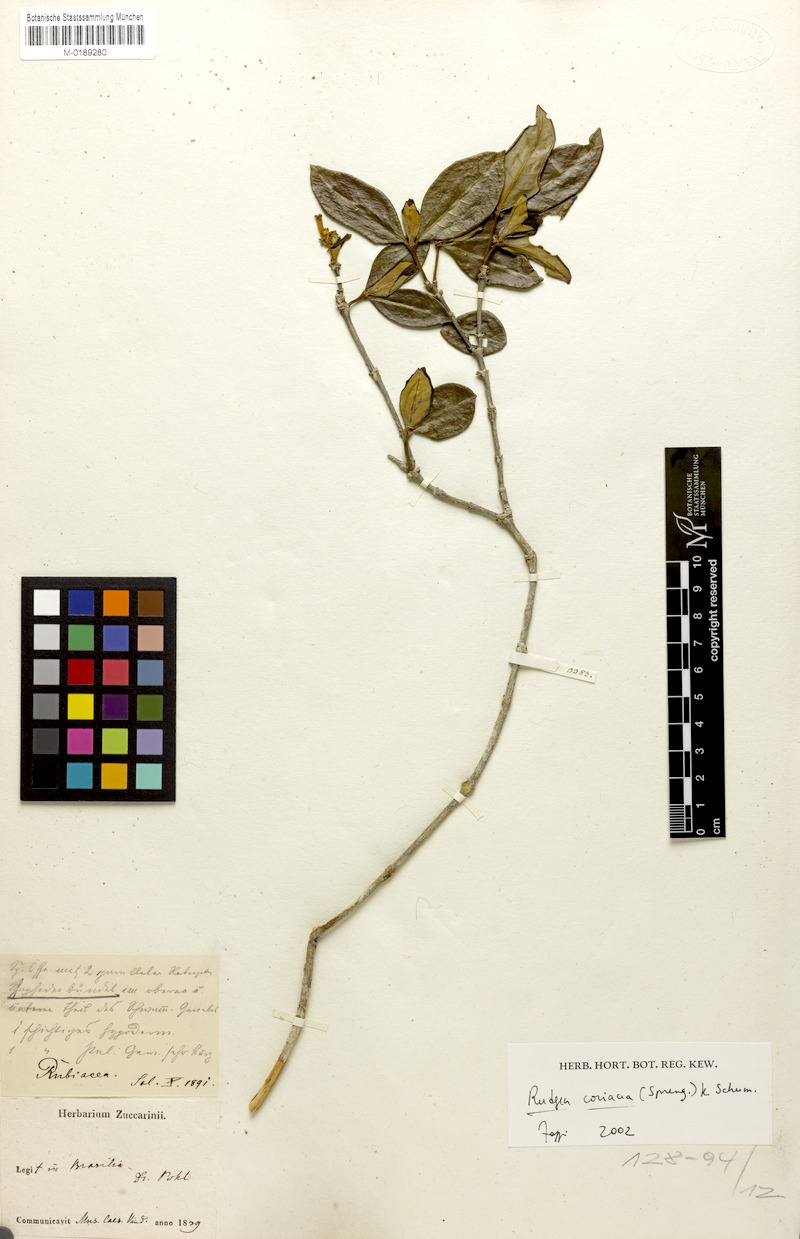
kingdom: Plantae
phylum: Tracheophyta
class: Magnoliopsida
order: Gentianales
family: Rubiaceae
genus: Rudgea
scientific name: Rudgea coriacea
